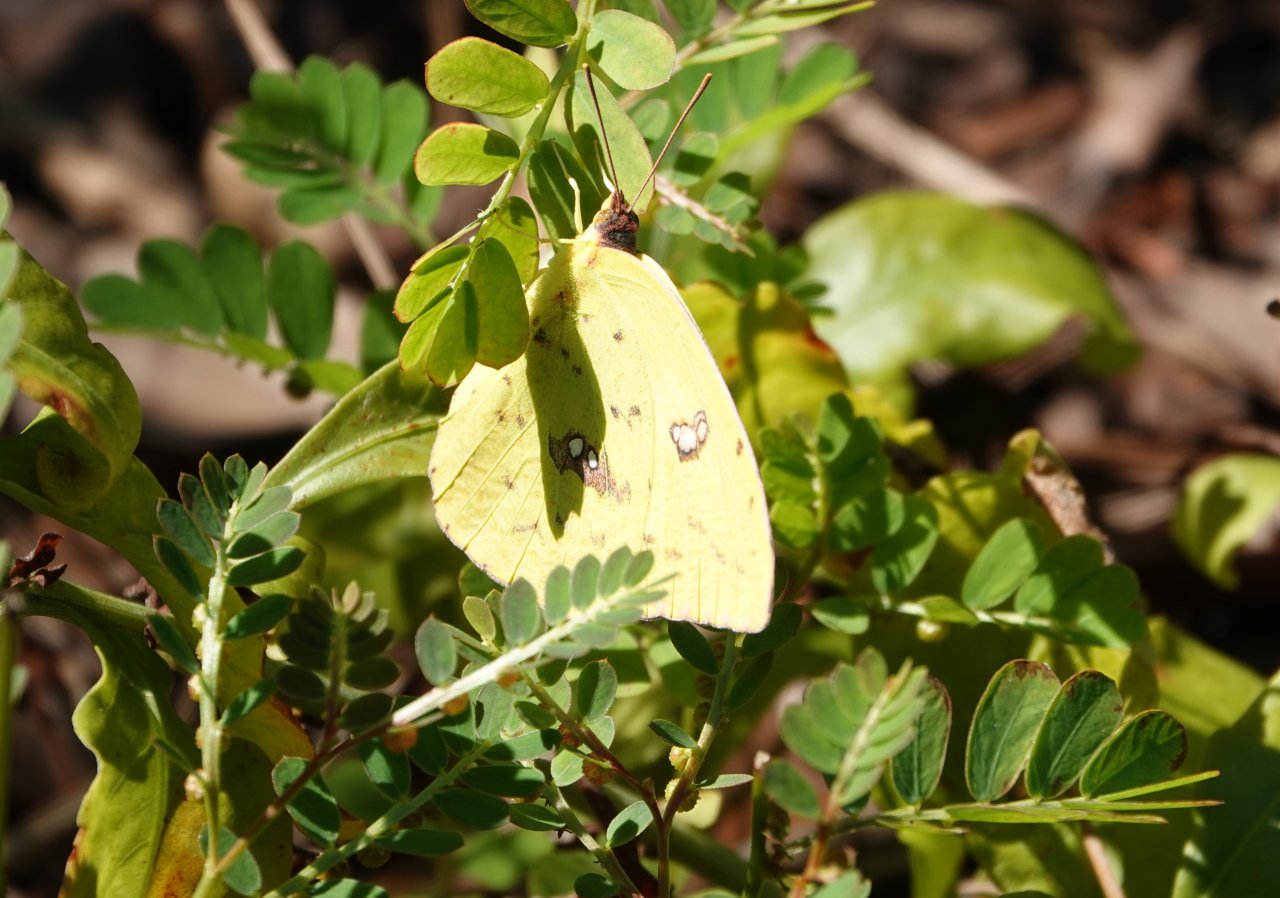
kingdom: Animalia
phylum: Arthropoda
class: Insecta
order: Lepidoptera
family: Pieridae
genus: Phoebis
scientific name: Phoebis sennae
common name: Cloudless Sulphur
